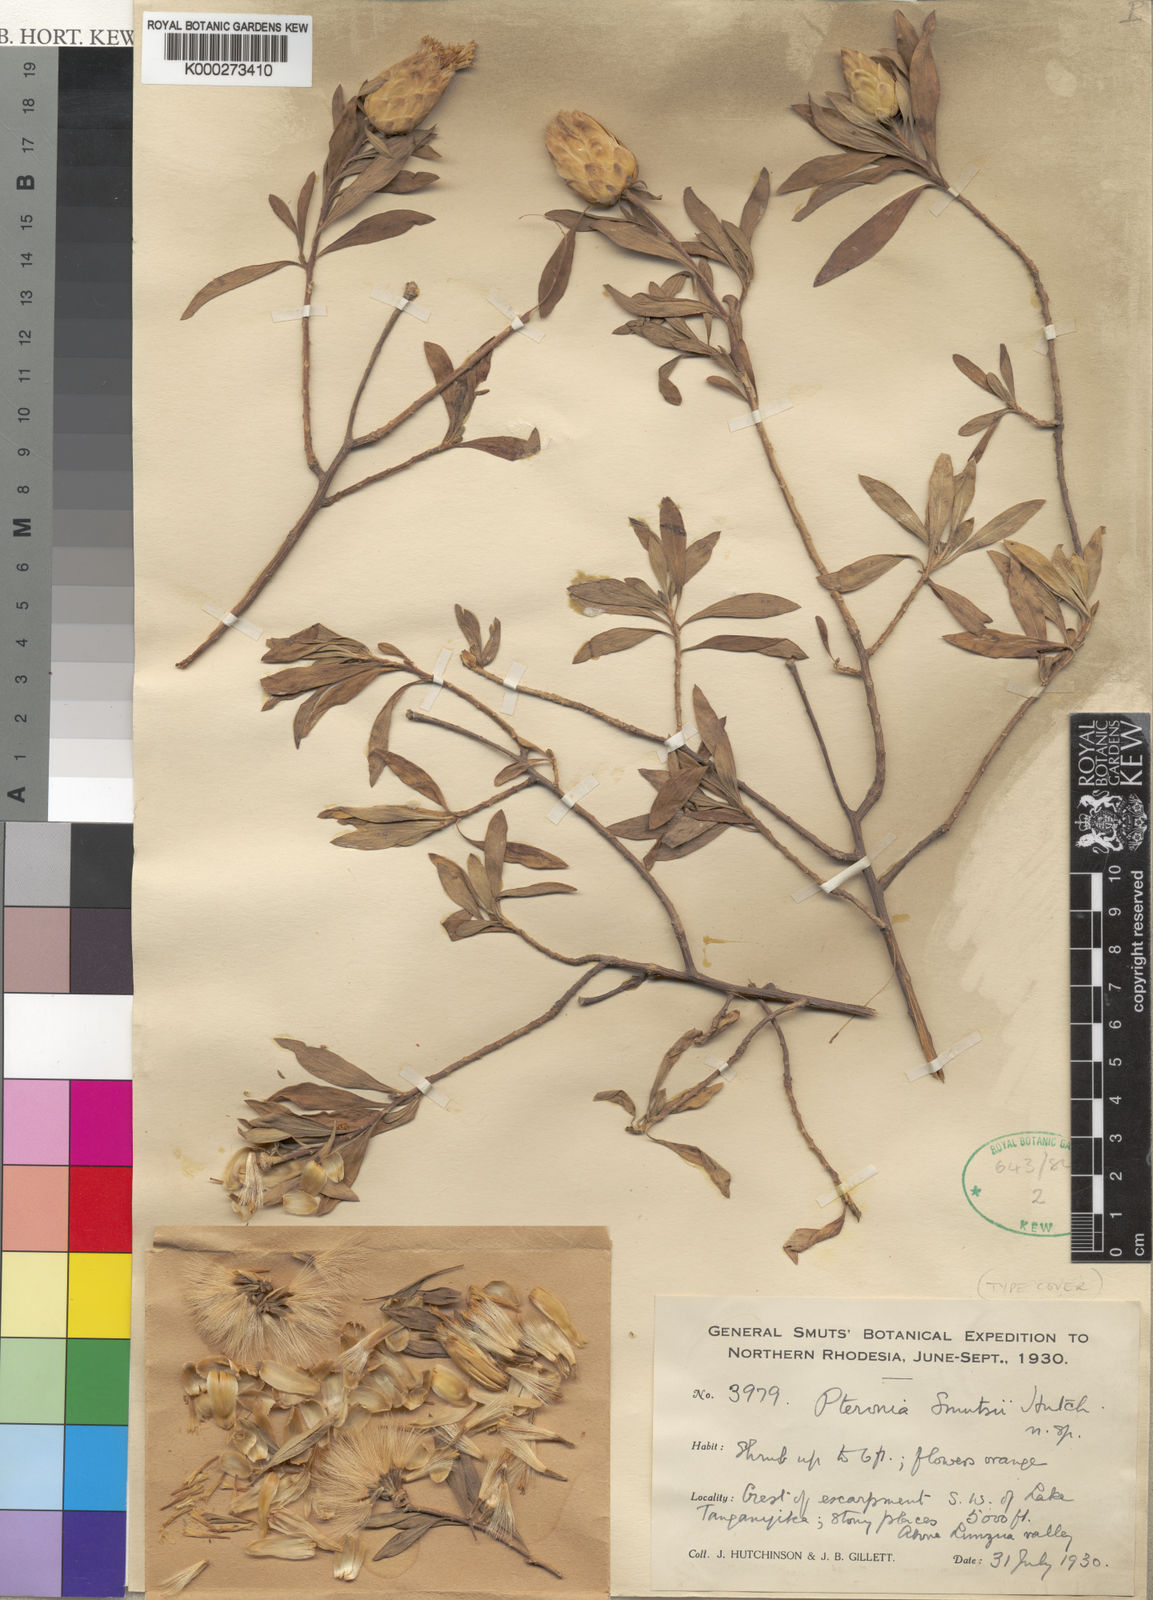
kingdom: Plantae
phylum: Tracheophyta
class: Magnoliopsida
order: Asterales
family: Asteraceae
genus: Pteronia
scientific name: Pteronia smutsii
